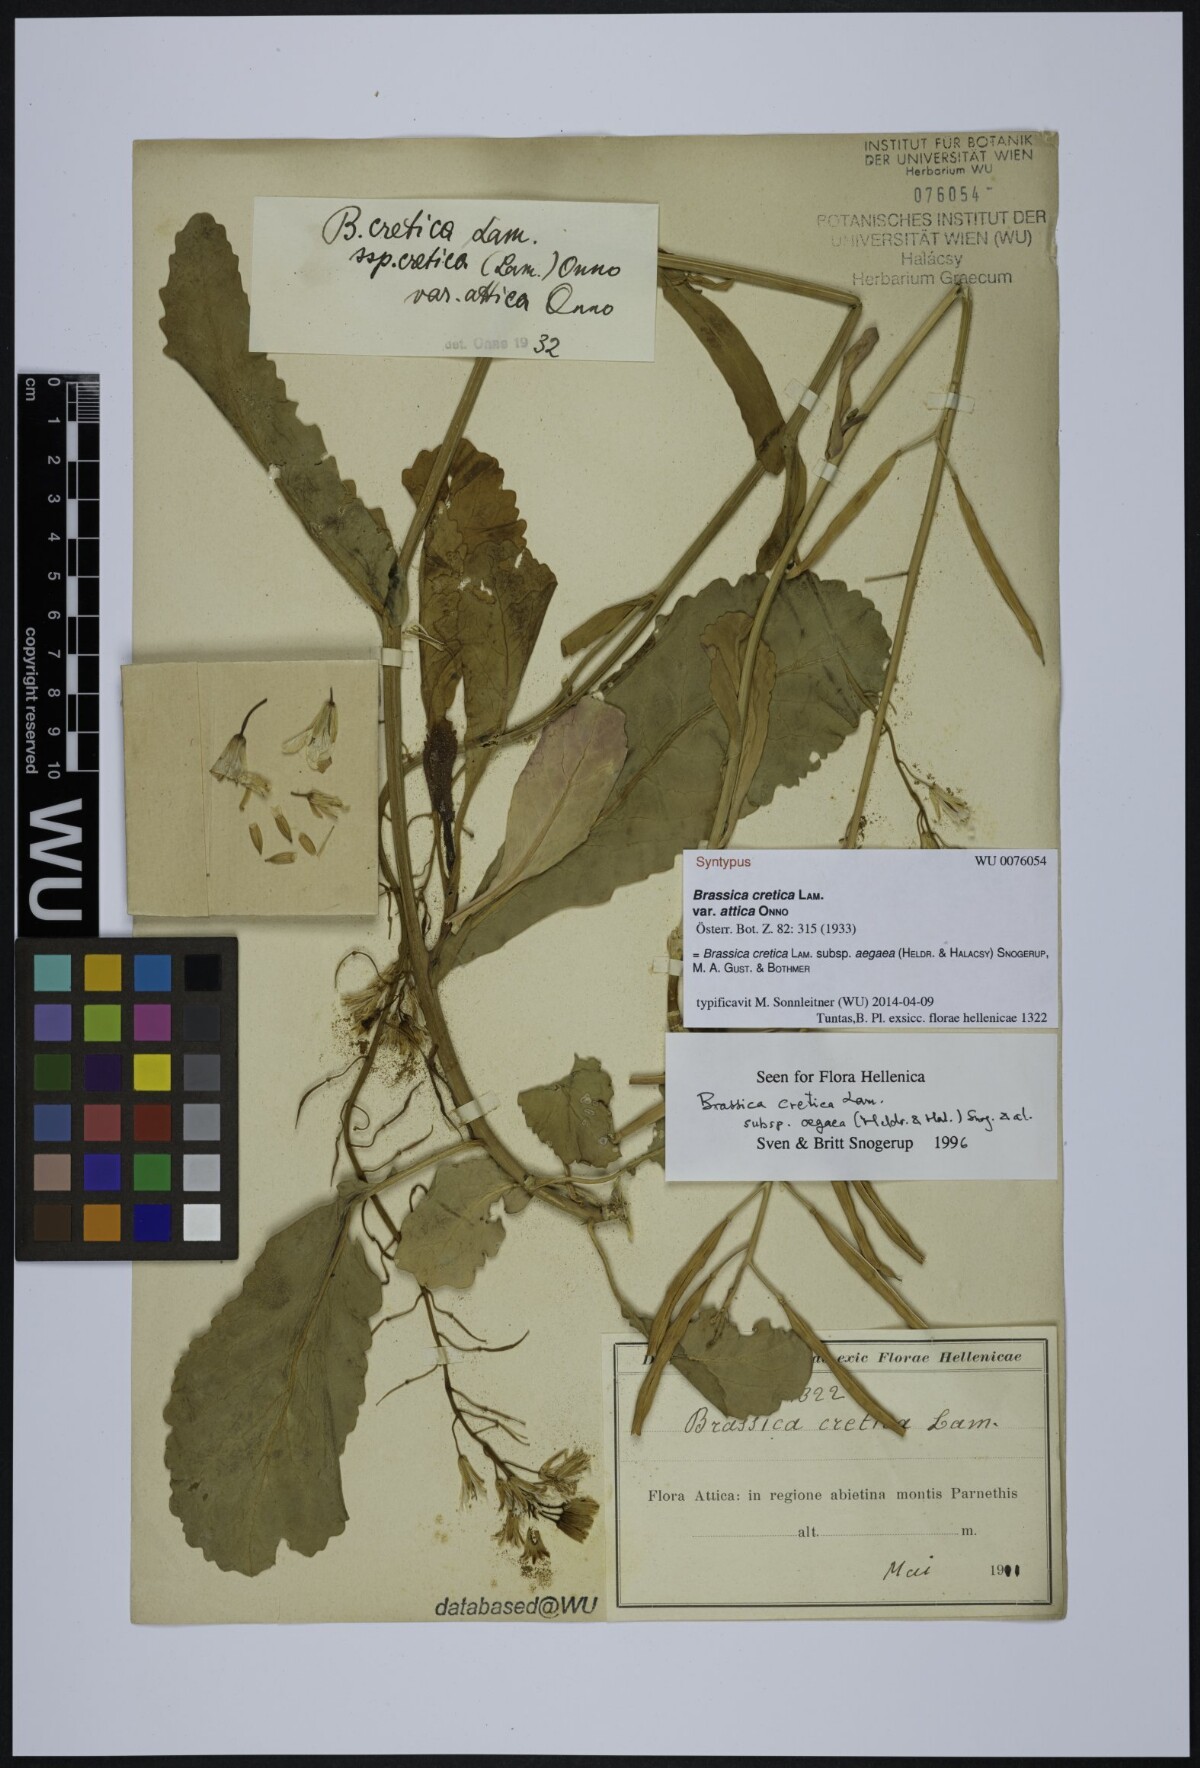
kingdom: Plantae
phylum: Tracheophyta
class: Magnoliopsida
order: Brassicales
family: Brassicaceae
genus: Brassica
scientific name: Brassica cretica
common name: Mustard
